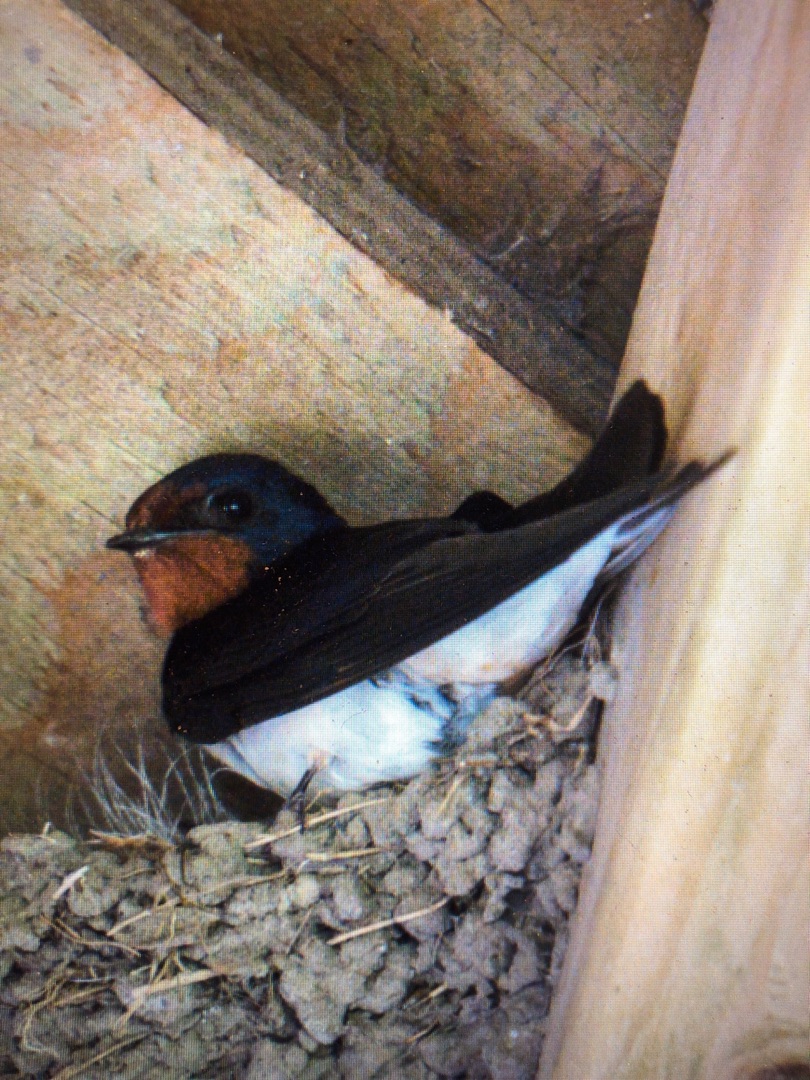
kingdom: Animalia
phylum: Chordata
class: Aves
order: Passeriformes
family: Hirundinidae
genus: Hirundo
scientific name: Hirundo rustica
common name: Landsvale
